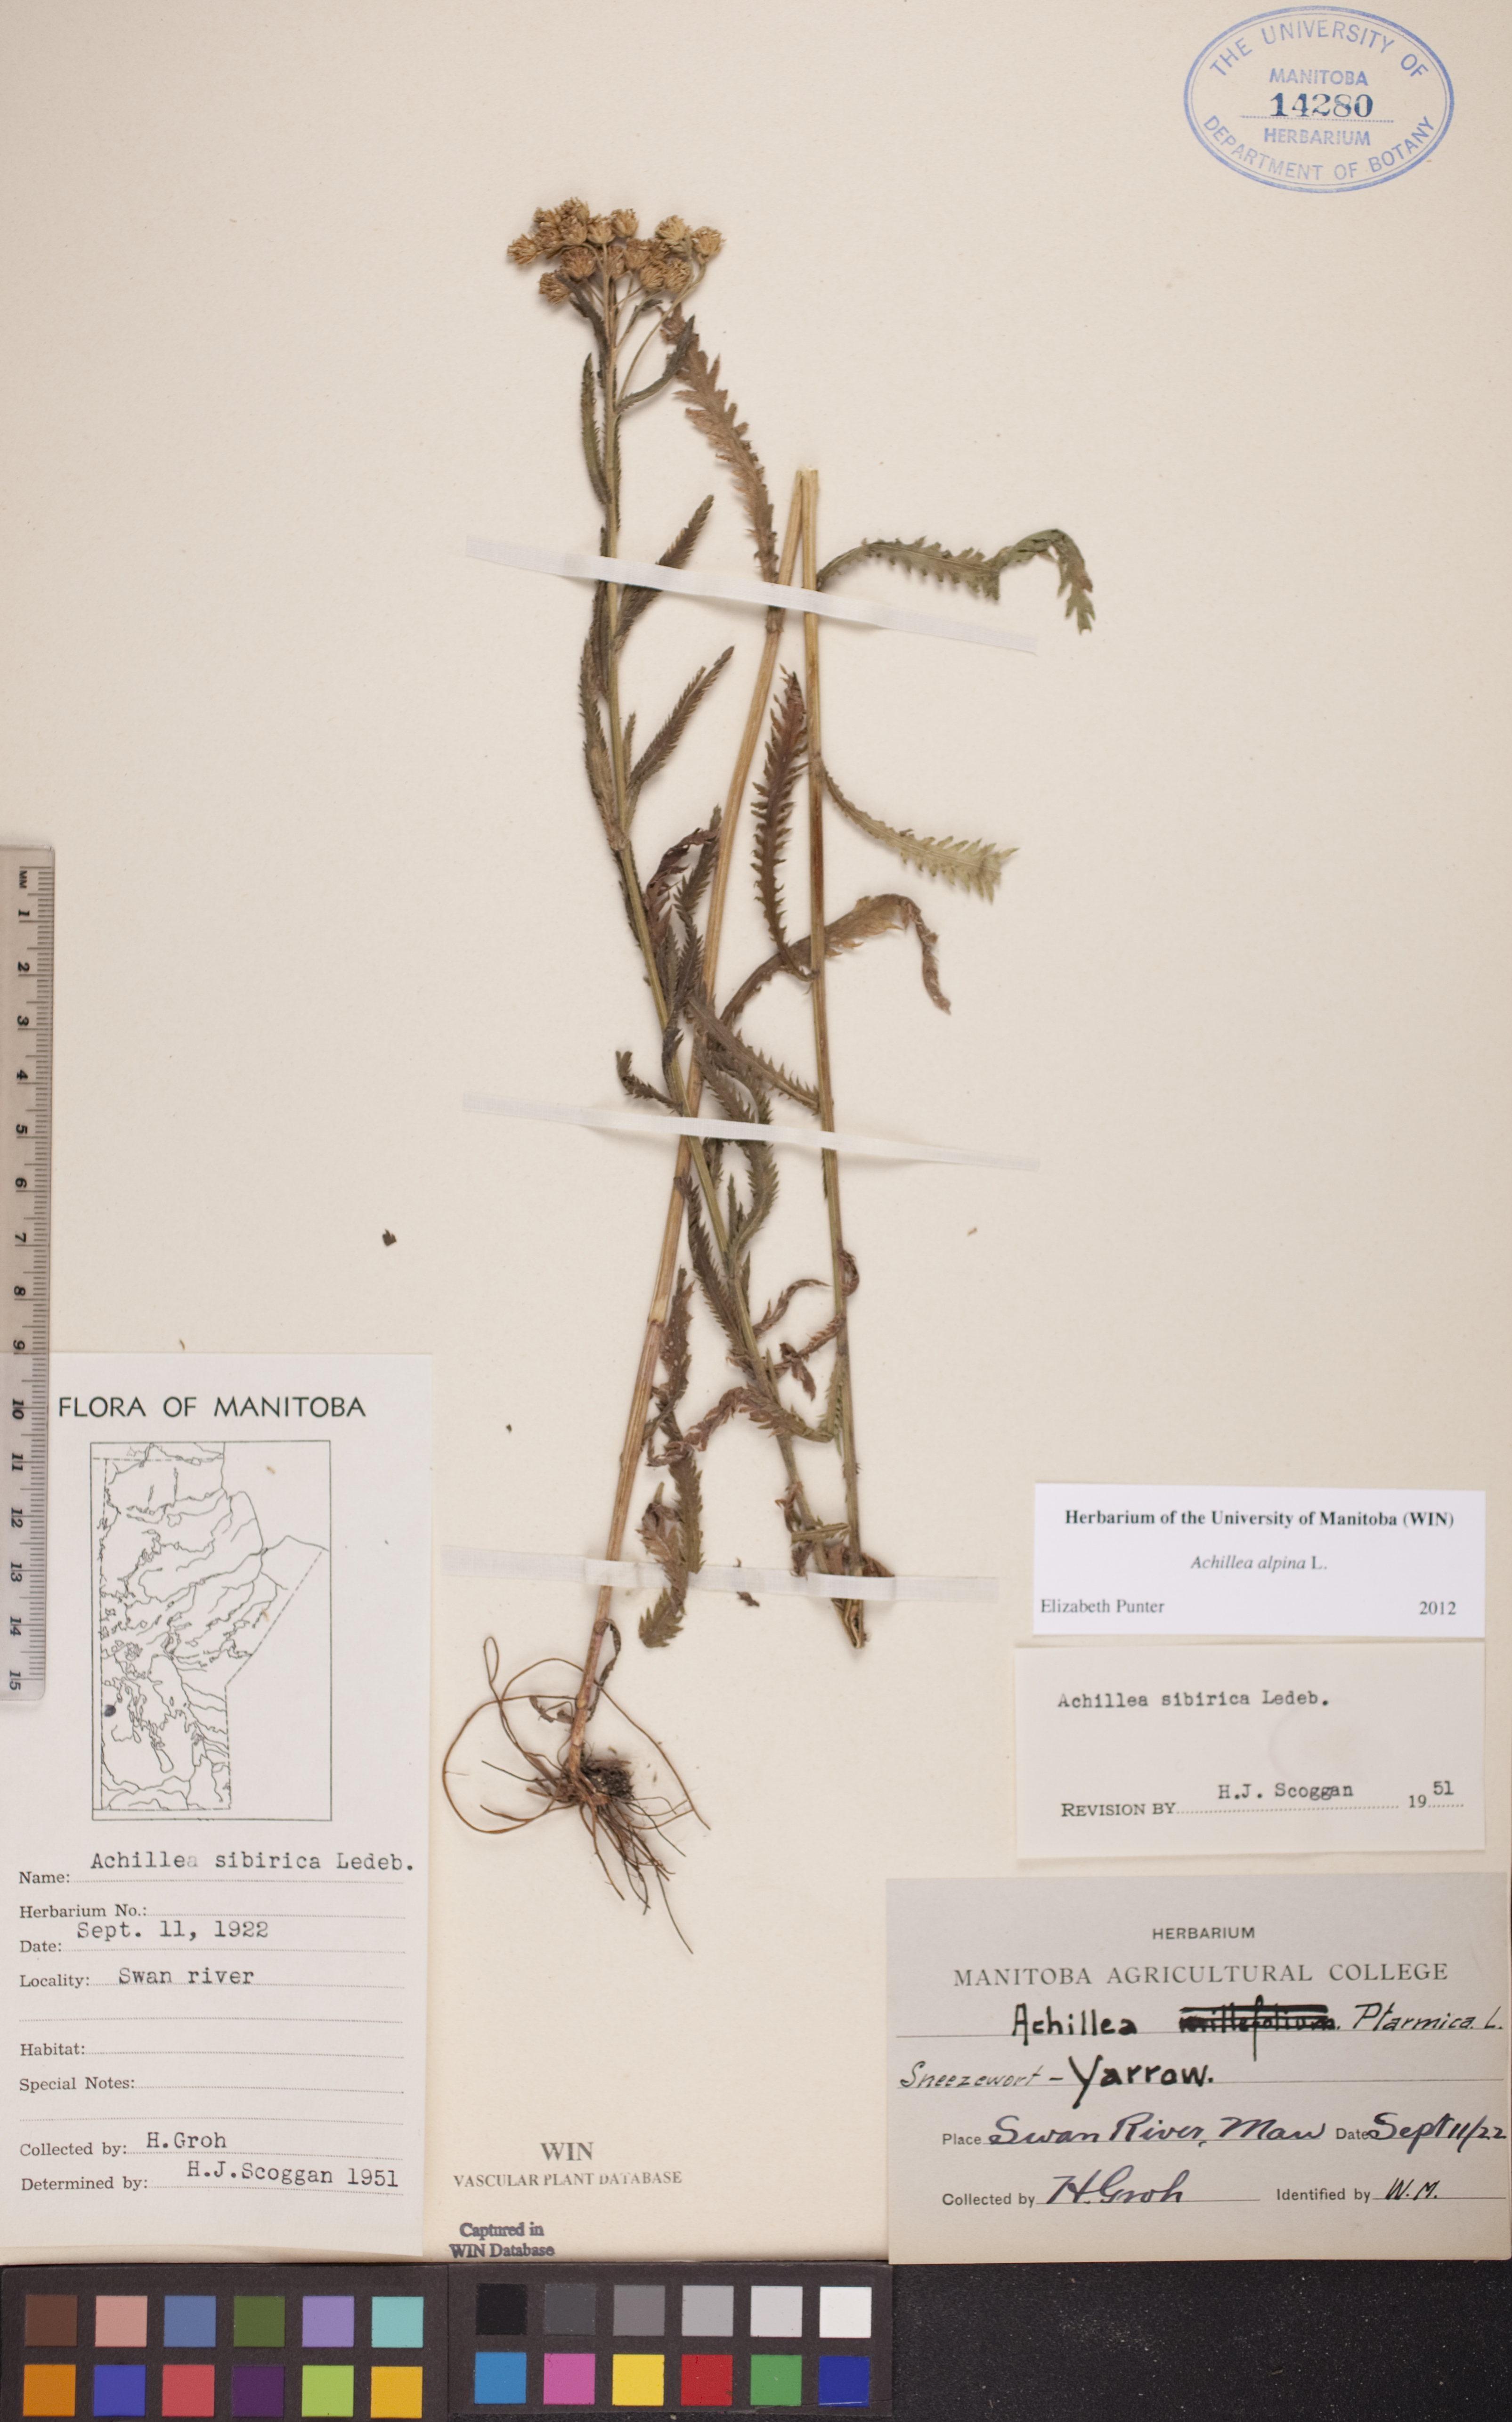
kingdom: Plantae
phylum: Tracheophyta
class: Magnoliopsida
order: Asterales
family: Asteraceae
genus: Achillea
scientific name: Achillea alpina
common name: Siberian yarrow
